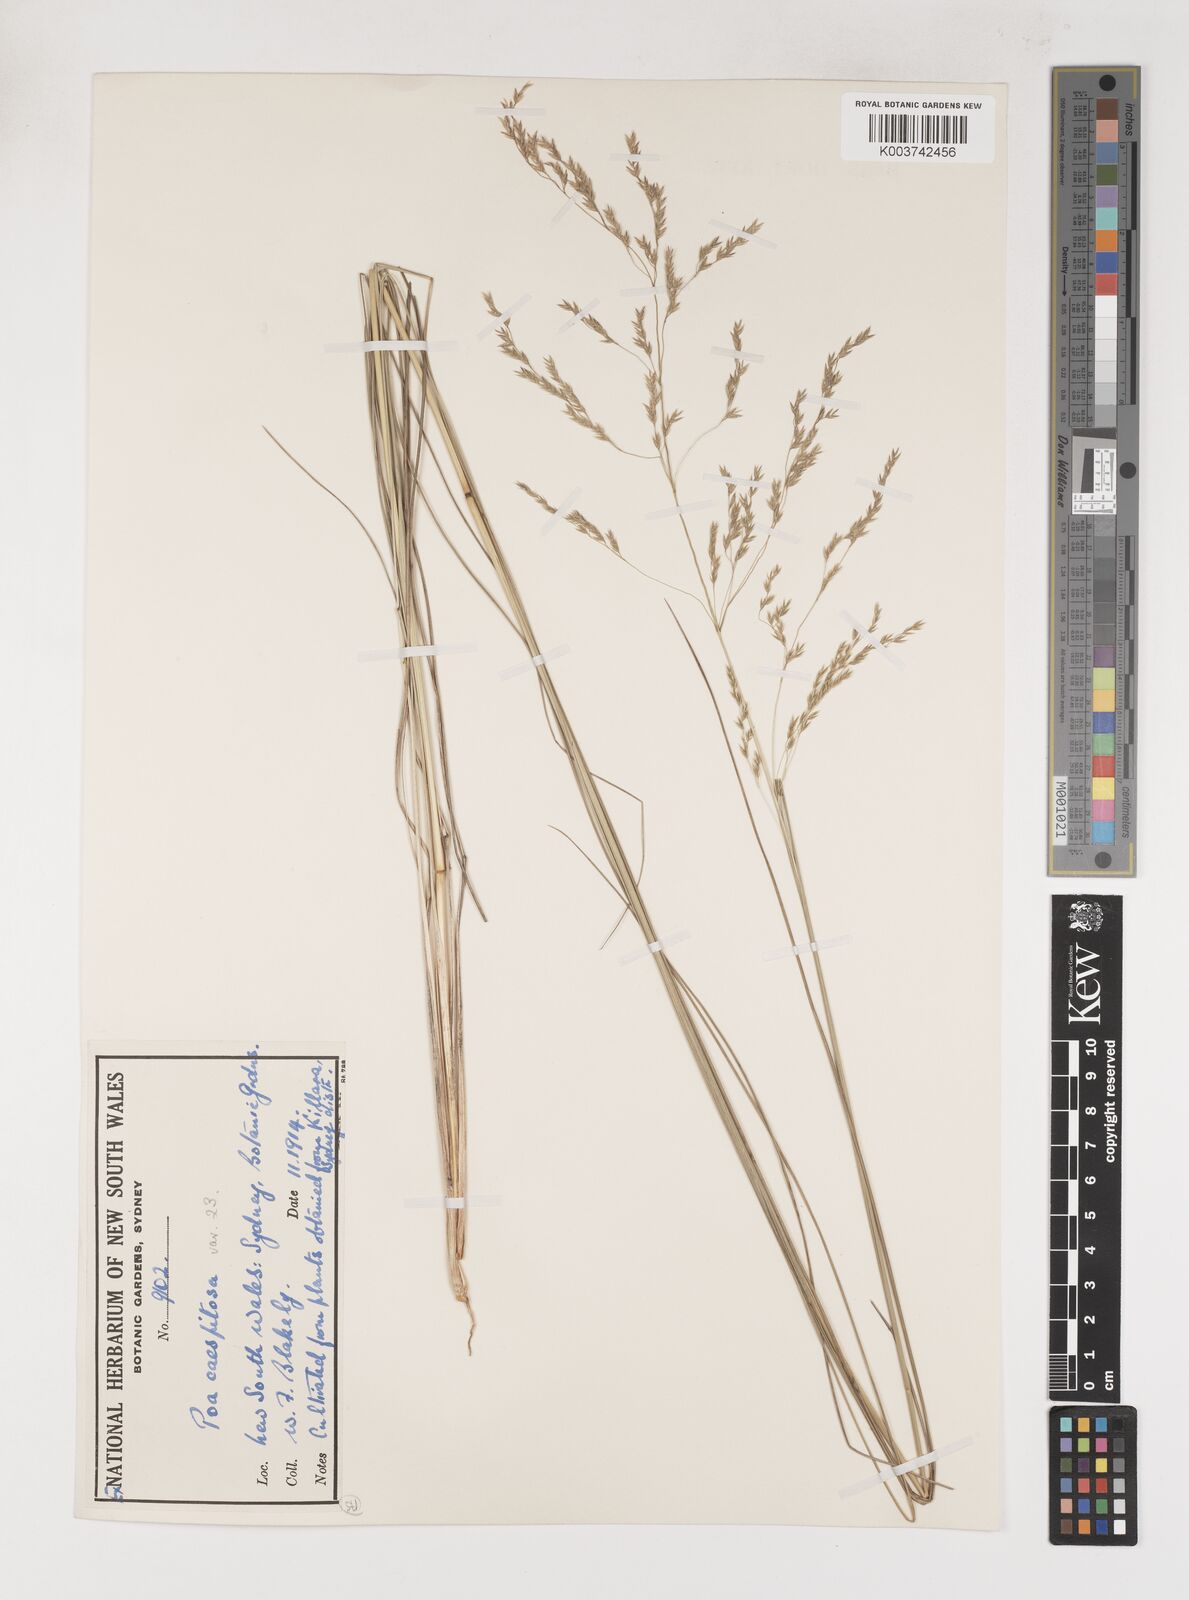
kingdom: Plantae
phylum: Tracheophyta
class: Liliopsida
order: Poales
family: Poaceae
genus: Poa
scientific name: Poa
